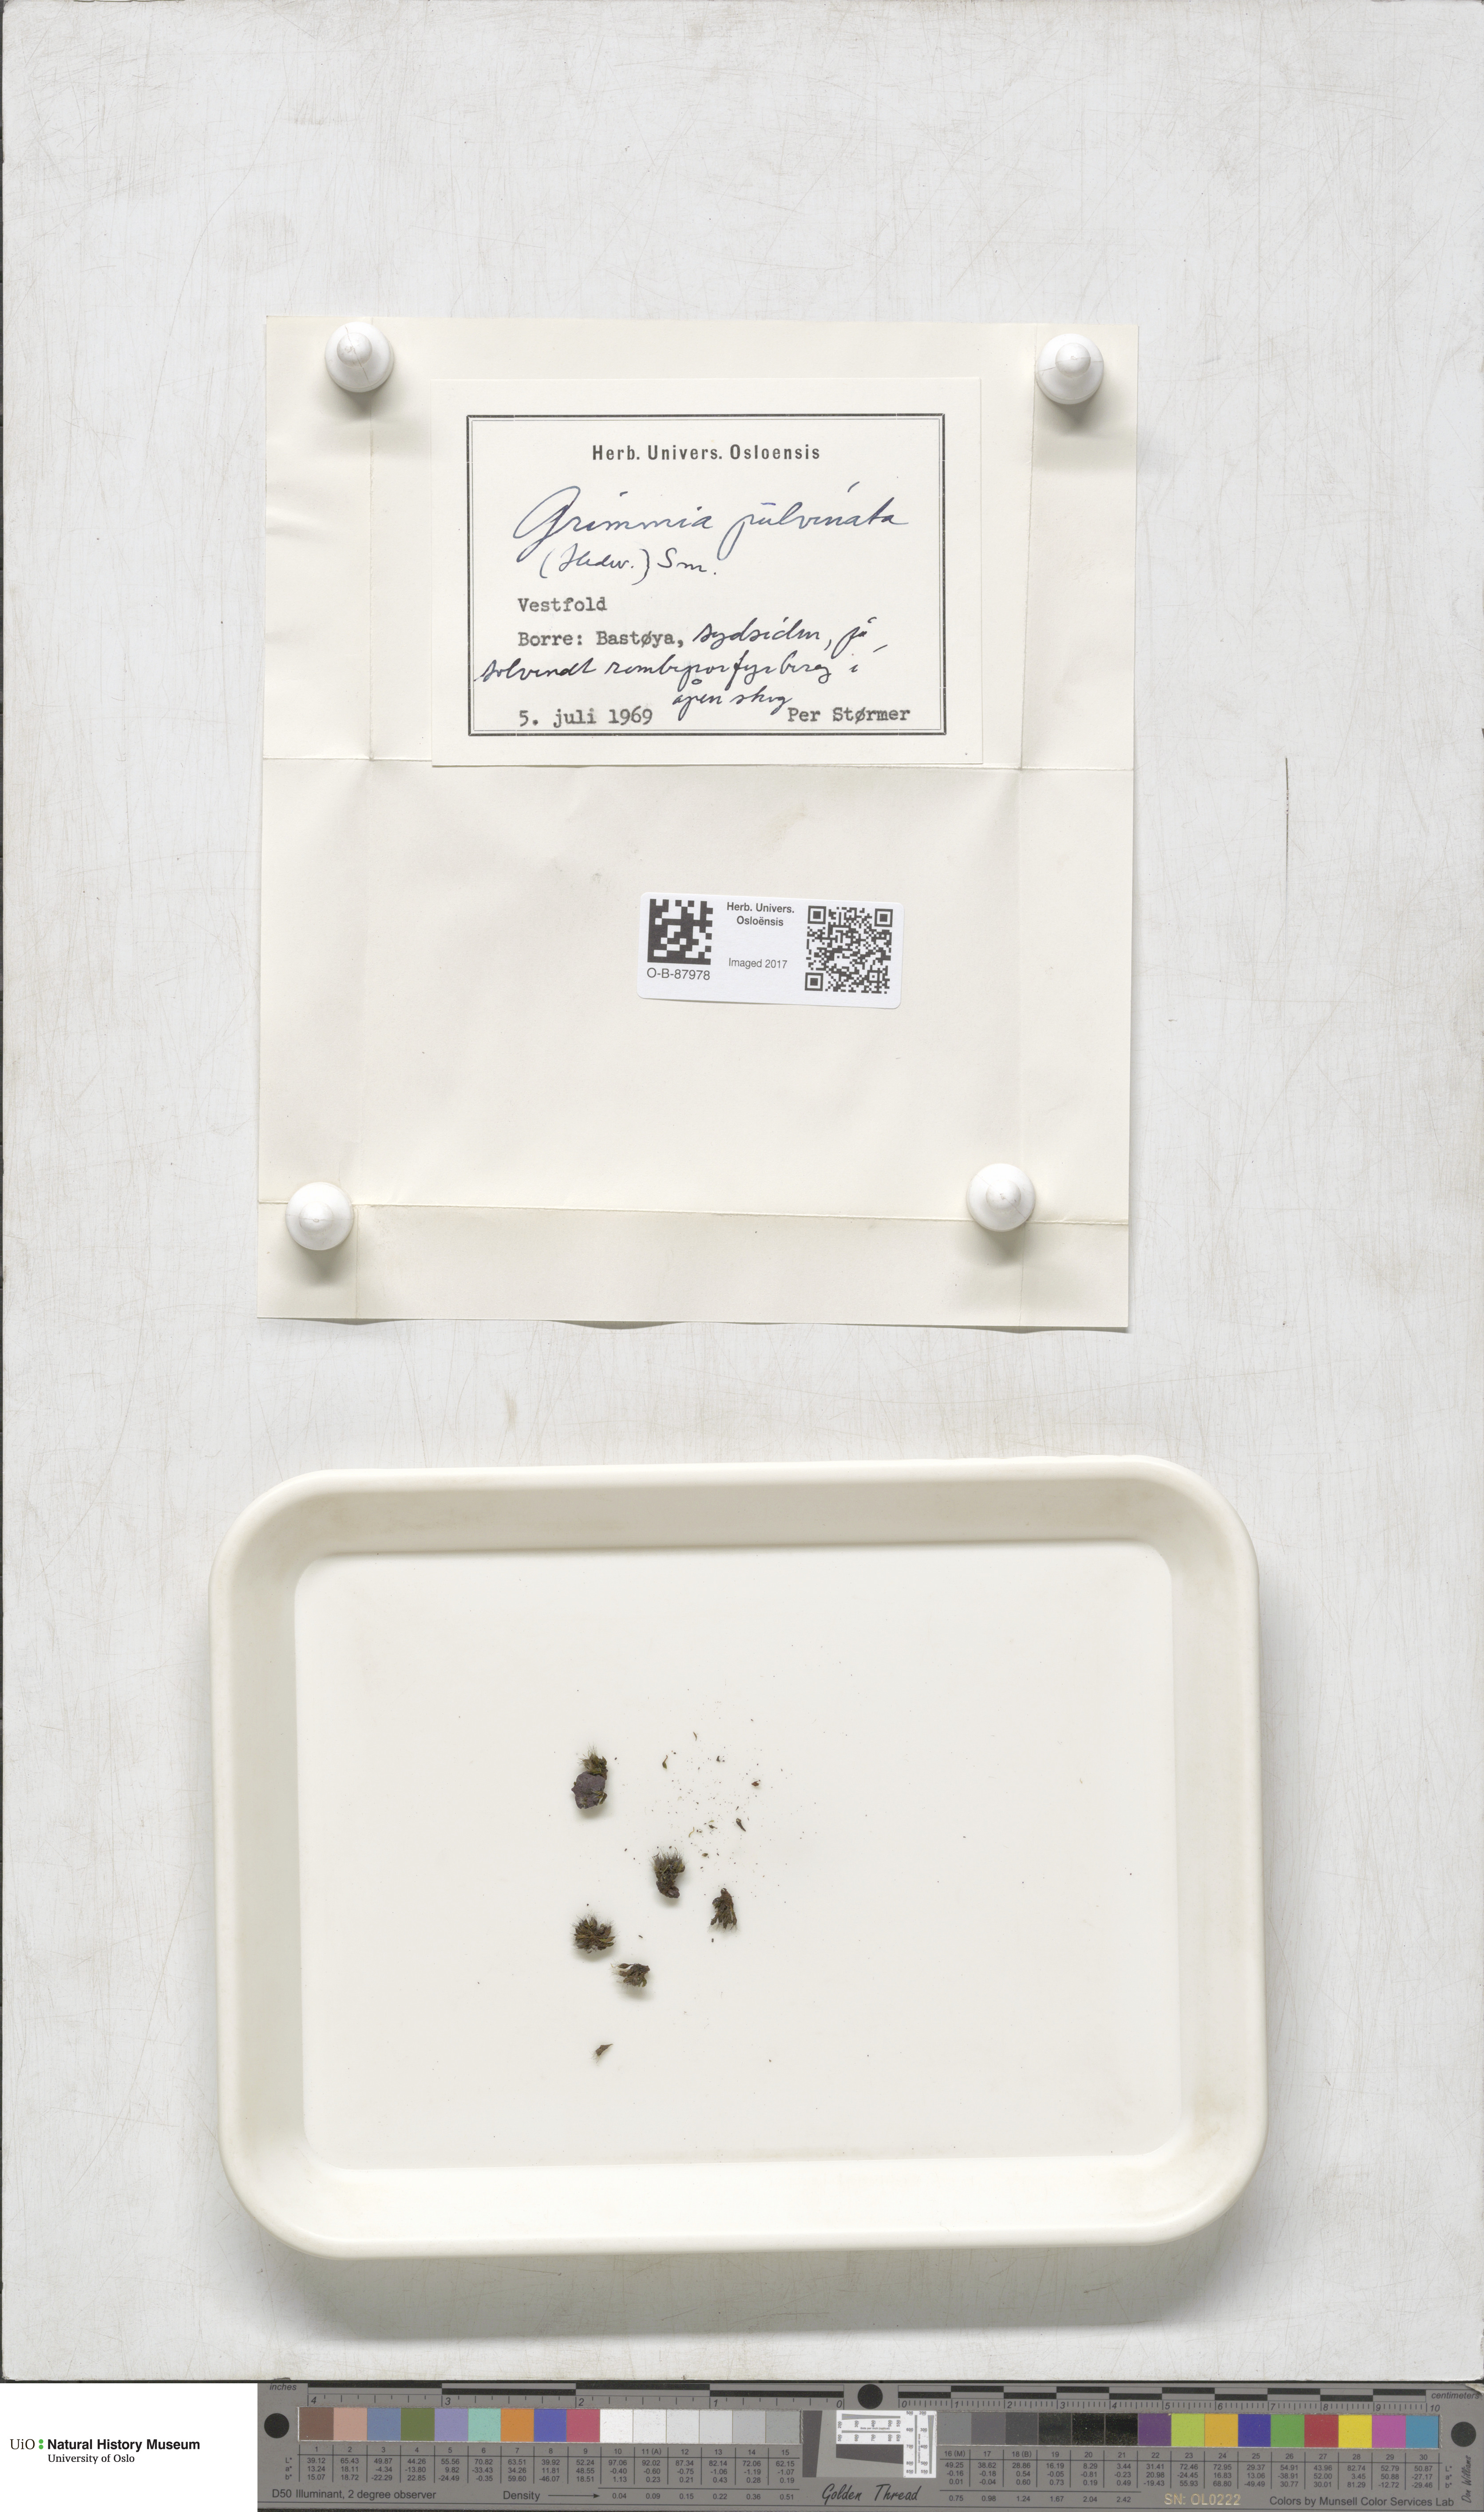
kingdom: Plantae
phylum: Bryophyta
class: Bryopsida
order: Grimmiales
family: Grimmiaceae
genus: Grimmia
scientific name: Grimmia pulvinata
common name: Grey-cushioned grimmia
